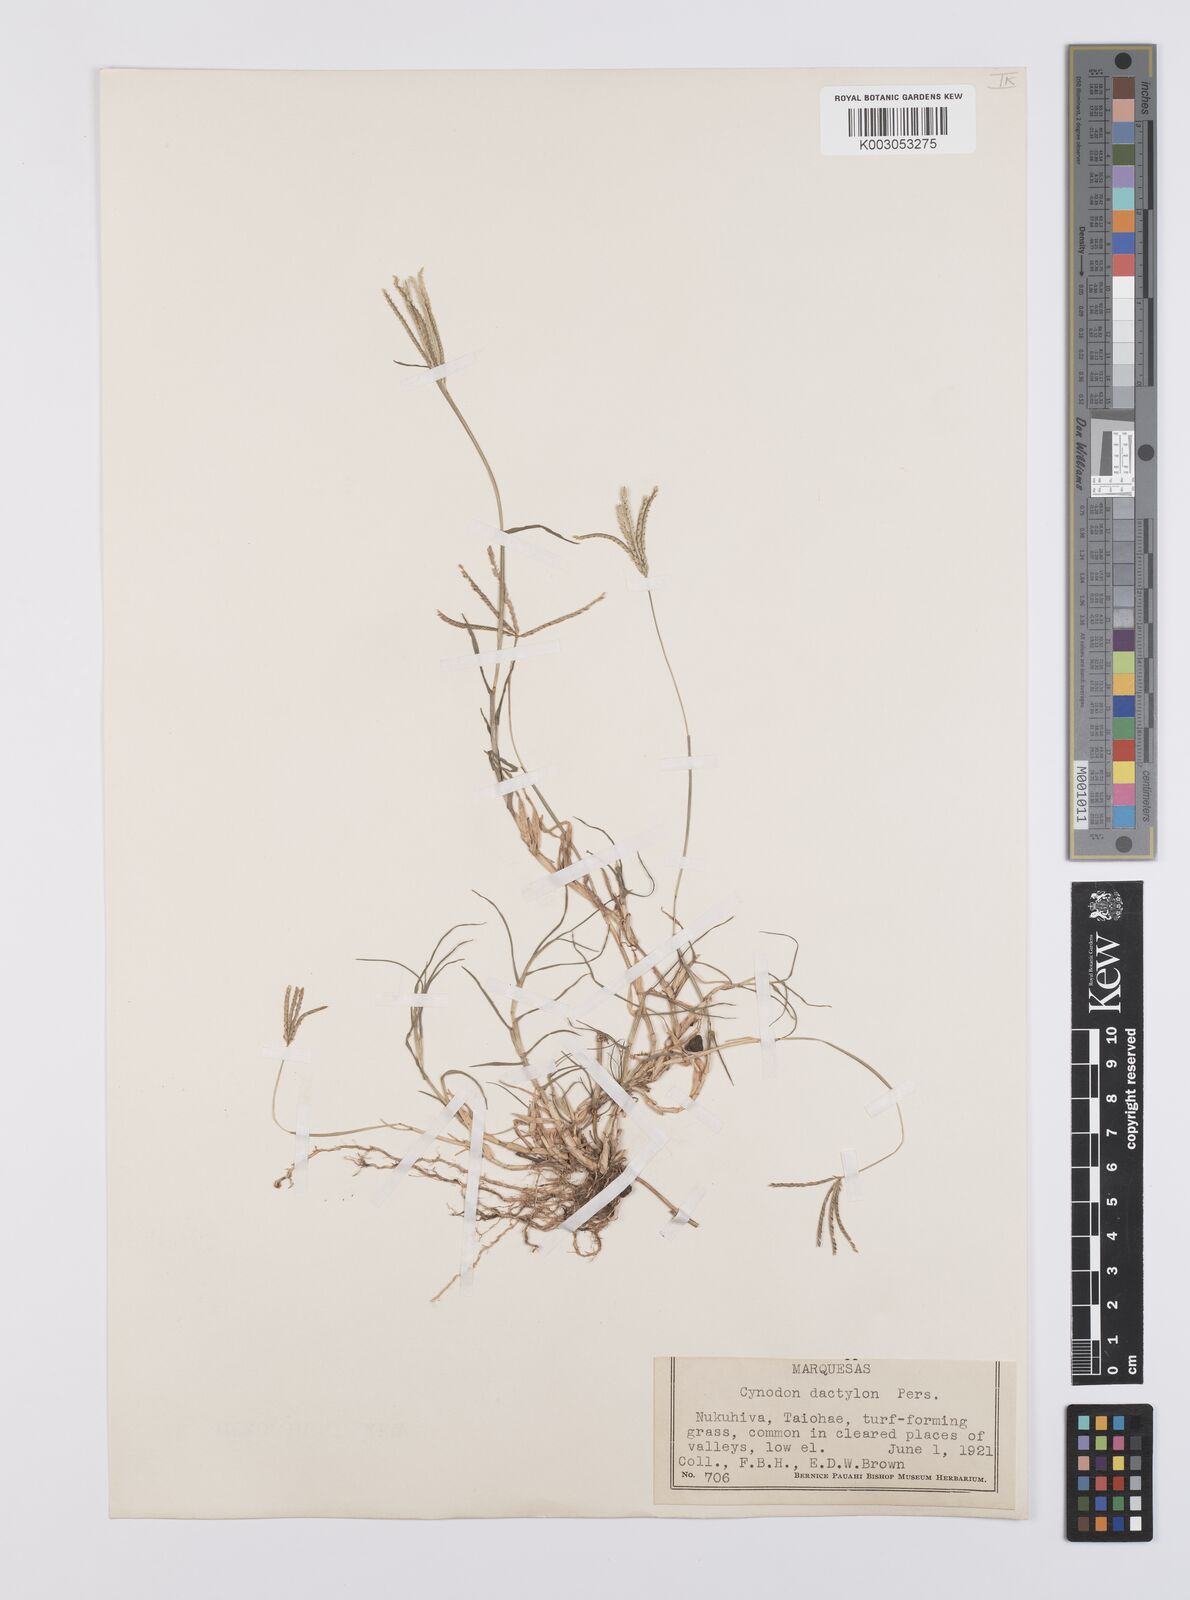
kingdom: Plantae
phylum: Tracheophyta
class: Liliopsida
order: Poales
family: Poaceae
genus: Cynodon
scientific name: Cynodon dactylon
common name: Bermuda grass
